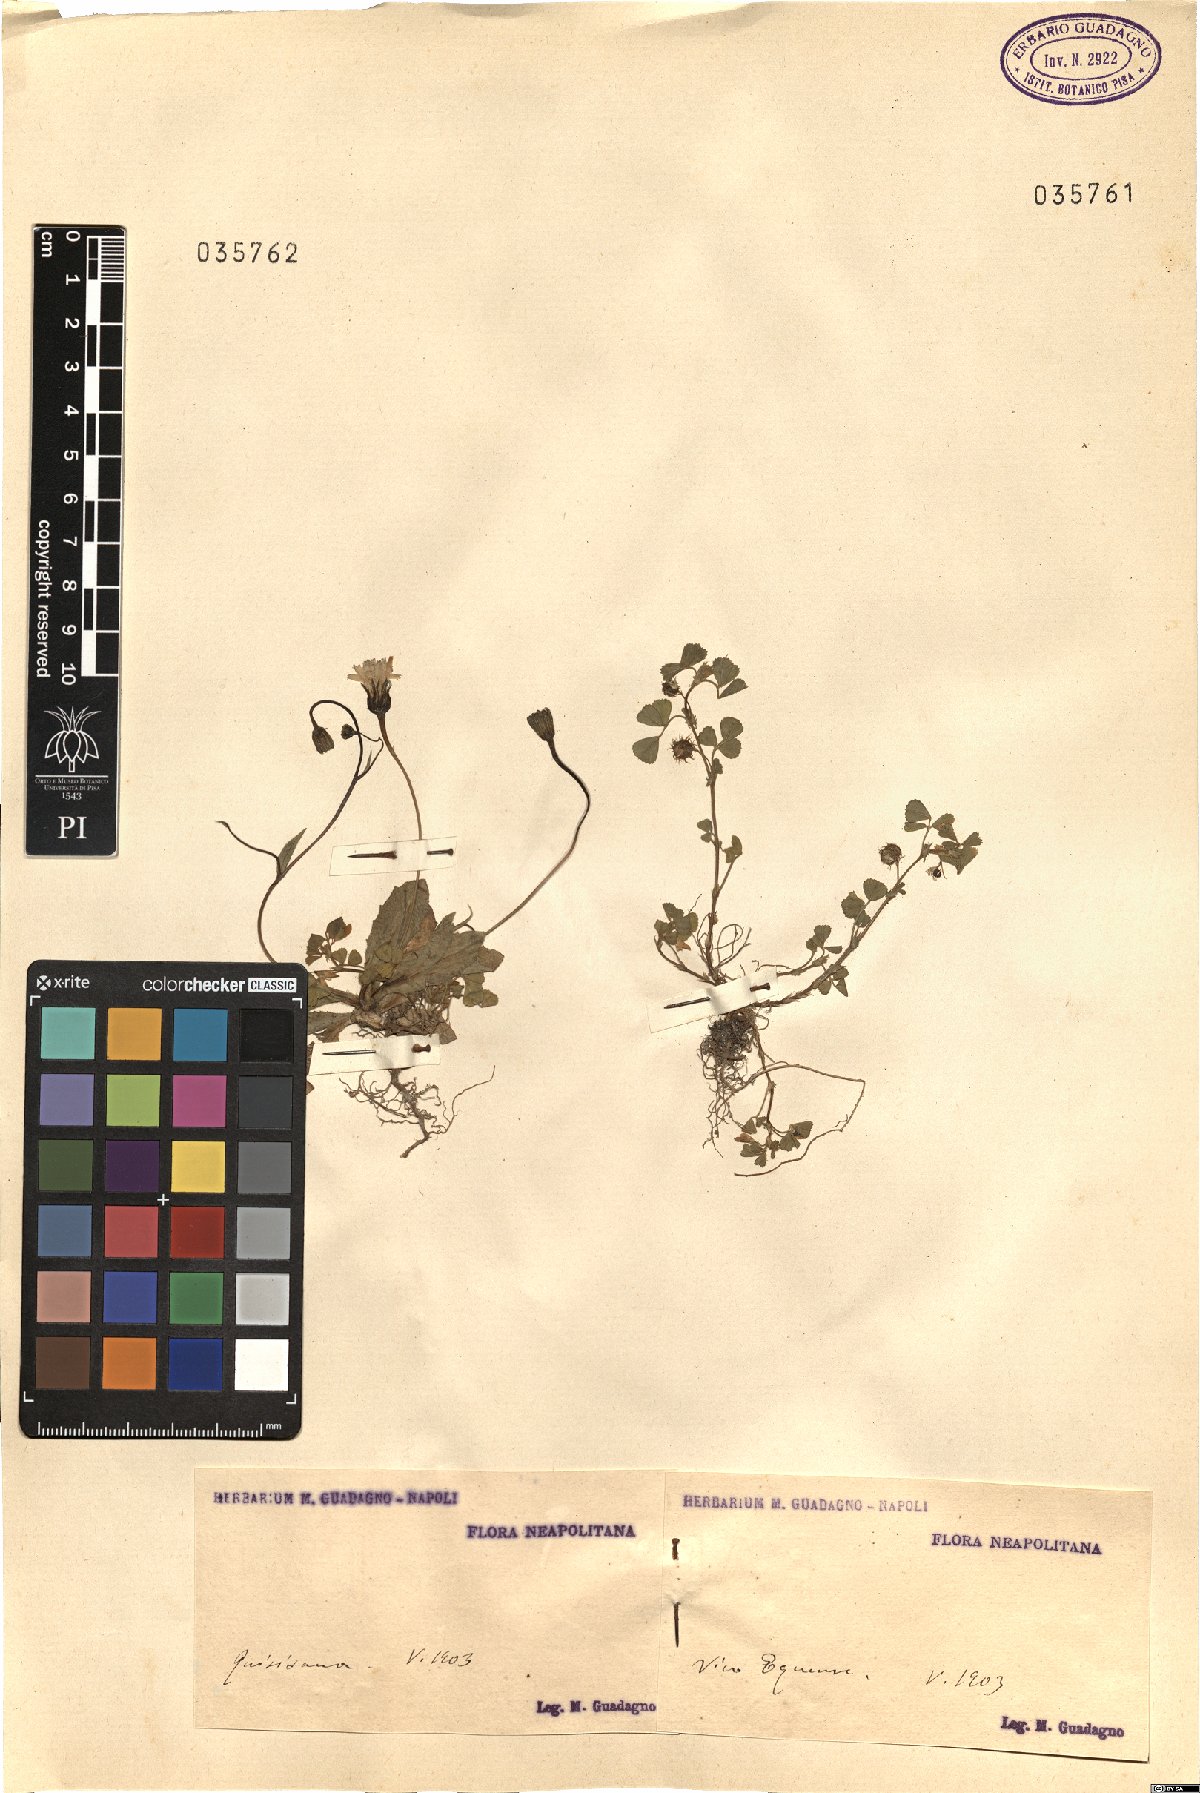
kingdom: Plantae
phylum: Tracheophyta
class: Magnoliopsida
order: Asterales
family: Asteraceae
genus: Crepis
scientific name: Crepis
